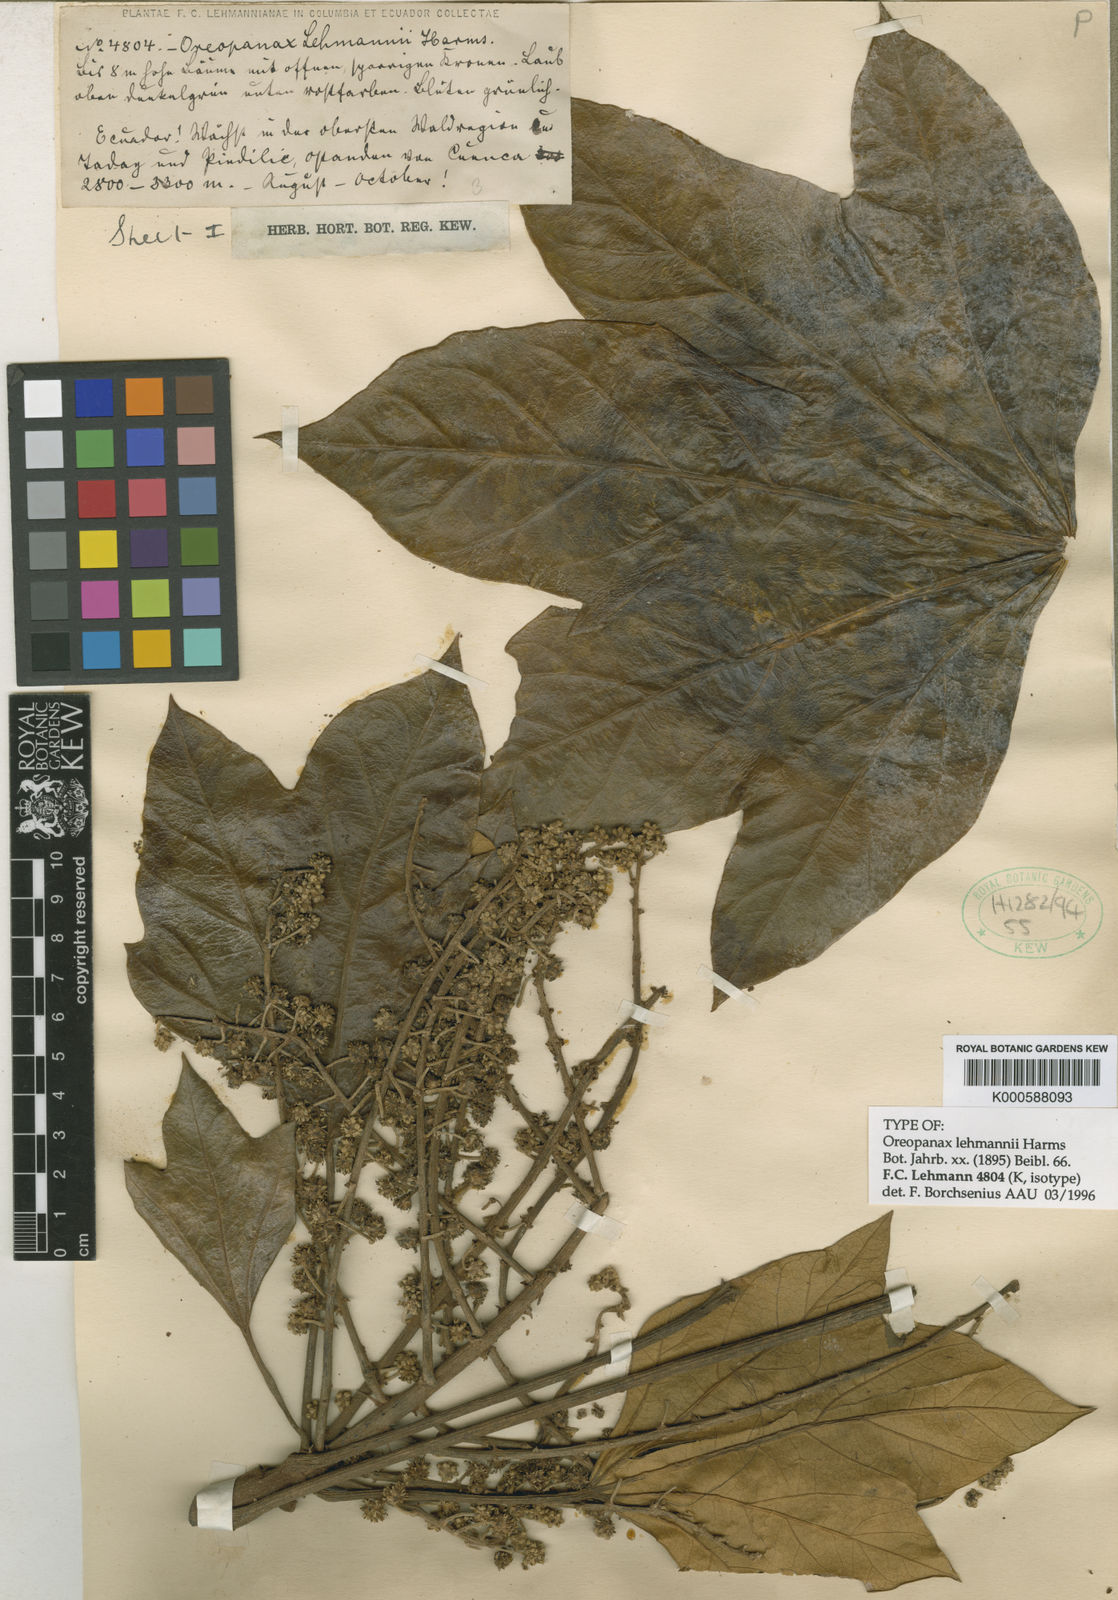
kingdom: Plantae
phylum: Tracheophyta
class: Magnoliopsida
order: Apiales
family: Araliaceae
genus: Oreopanax
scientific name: Oreopanax lehmannii
